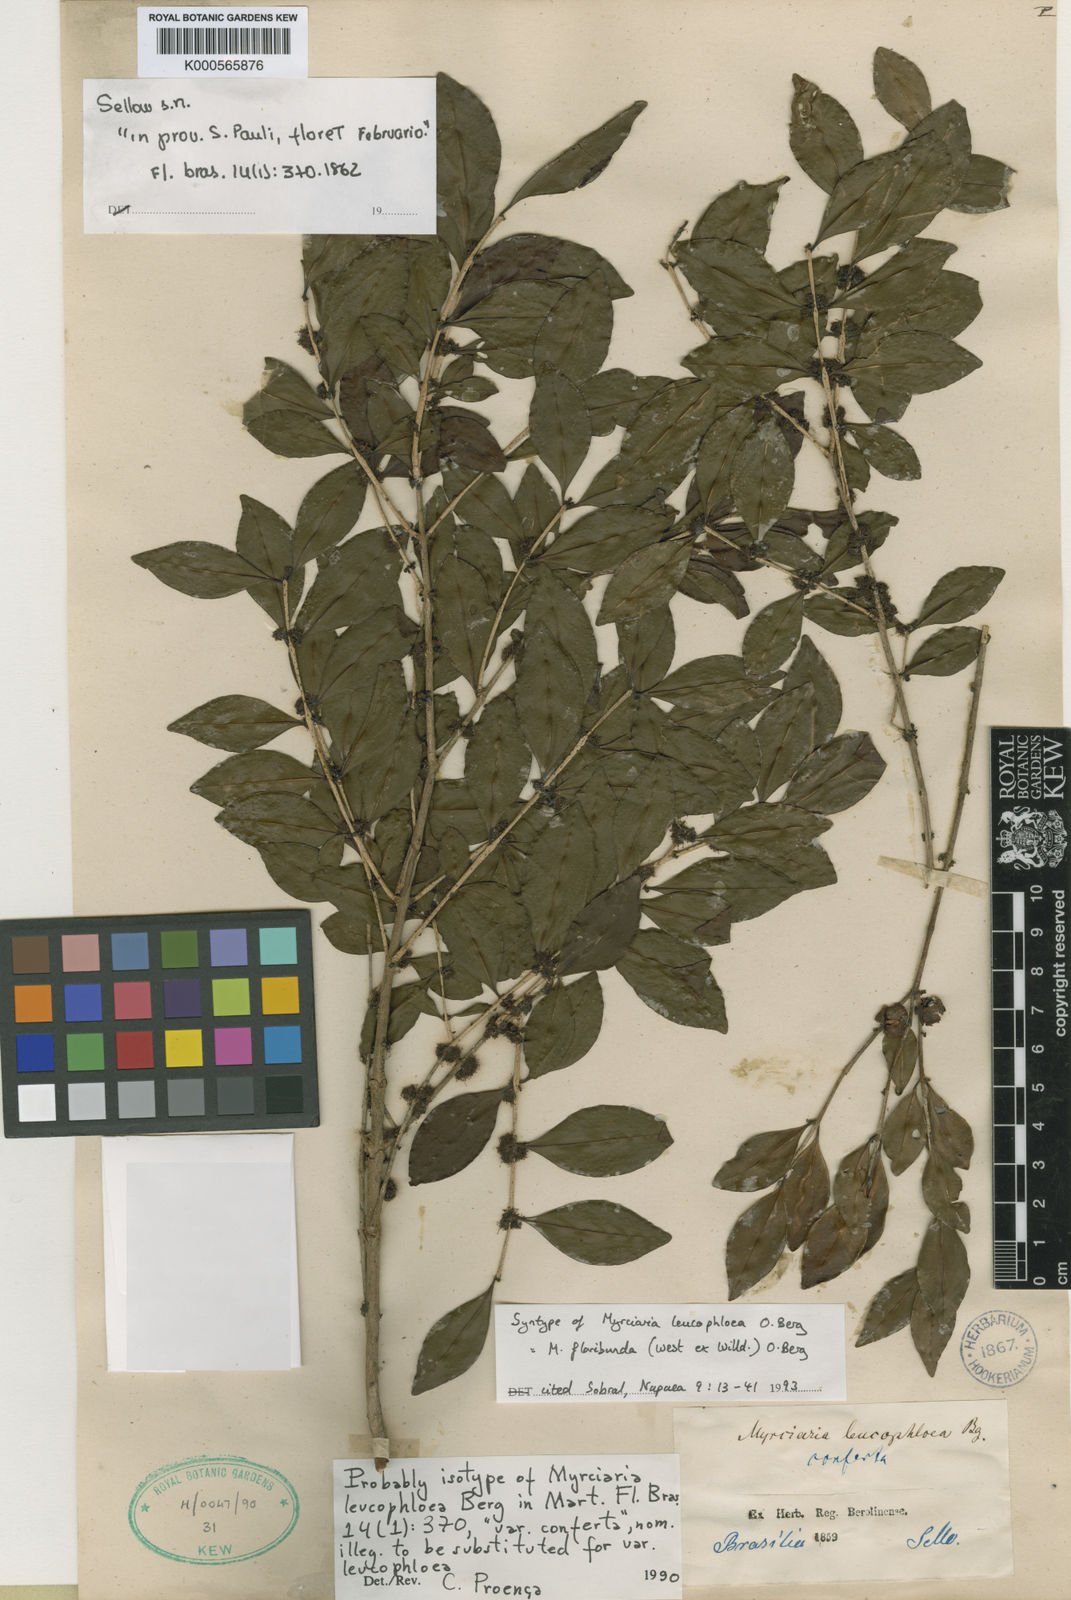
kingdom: Plantae
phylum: Tracheophyta
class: Magnoliopsida
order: Myrtales
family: Myrtaceae
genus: Myrciaria
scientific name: Myrciaria floribunda
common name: Guavaberry
